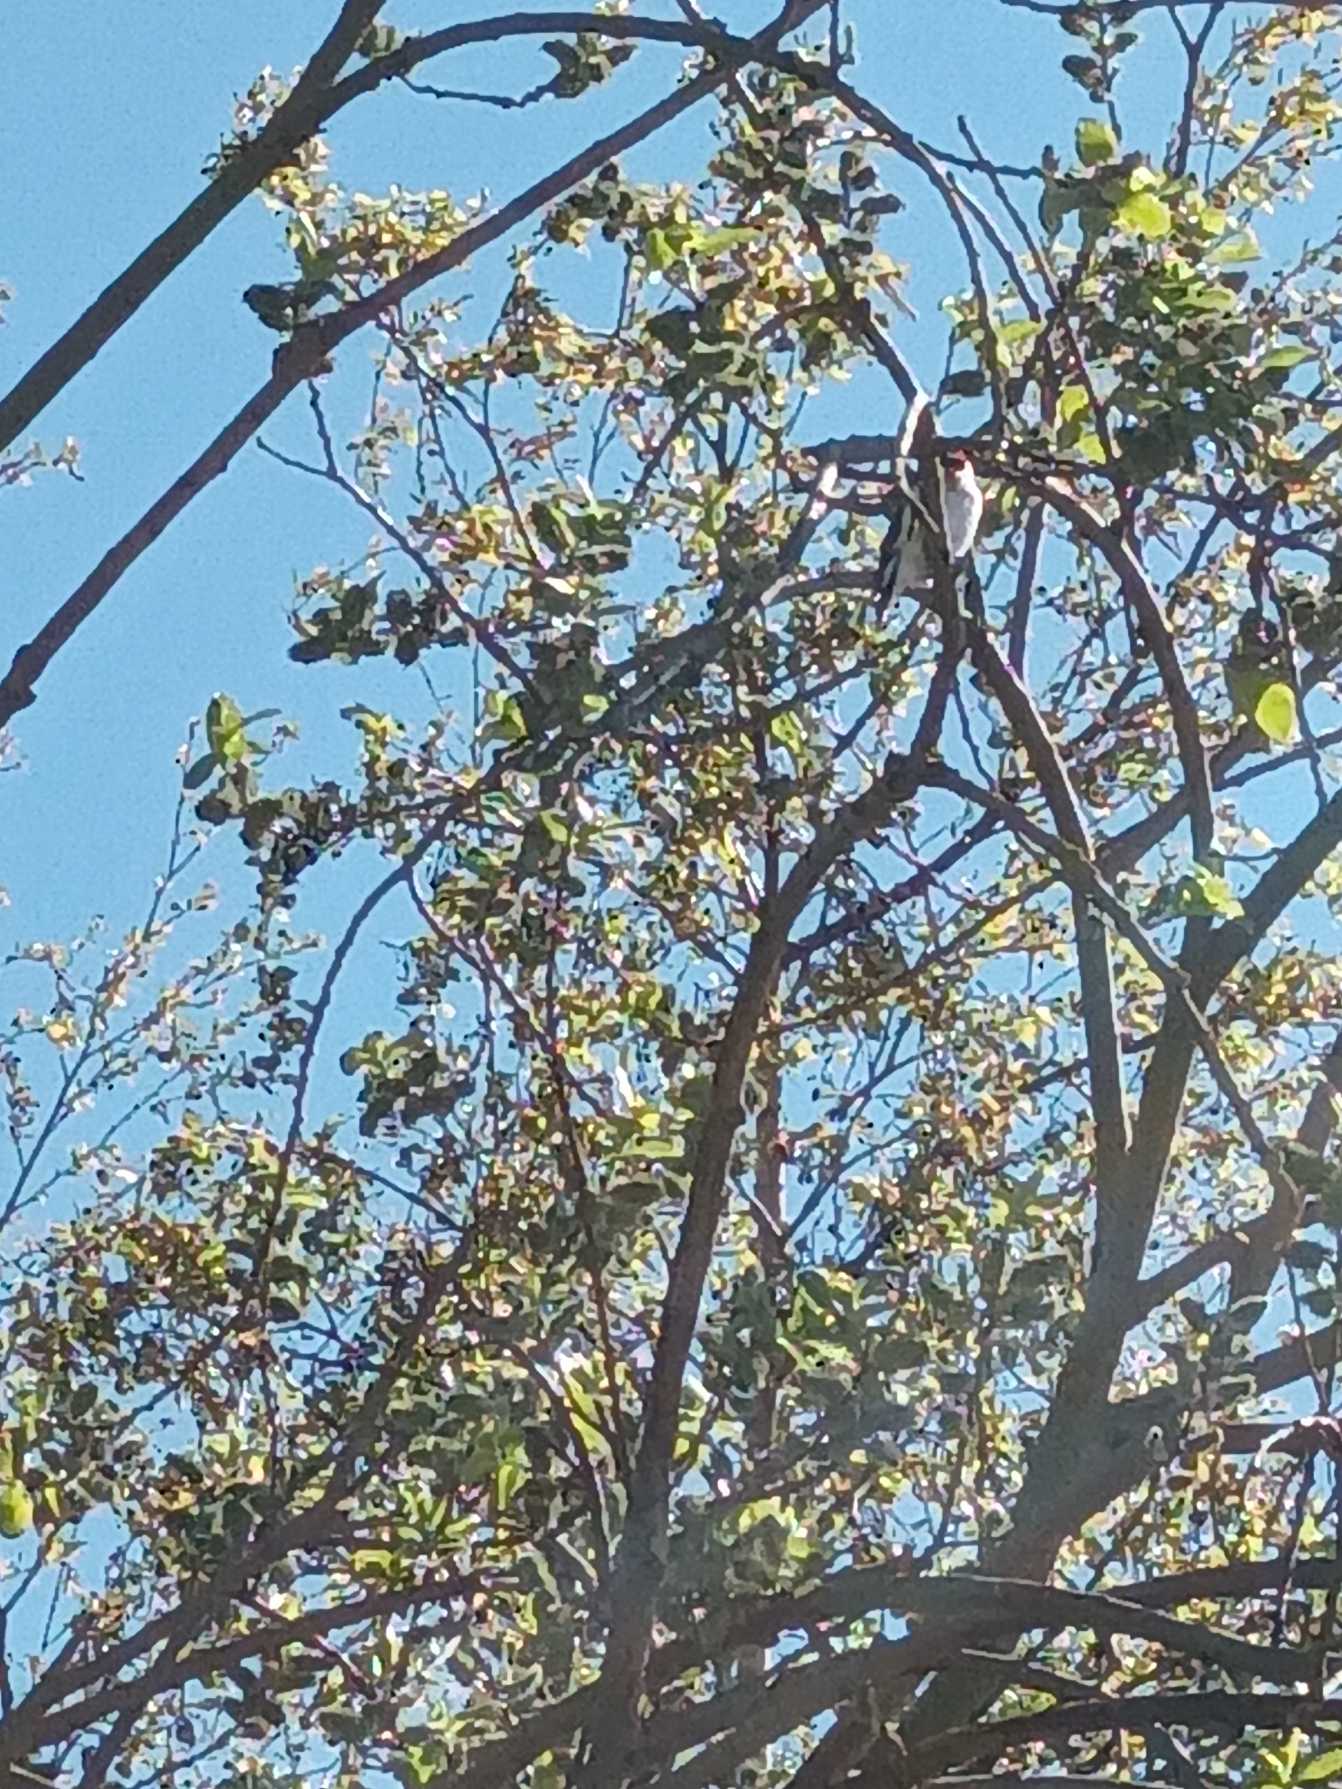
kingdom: Animalia
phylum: Chordata
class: Aves
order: Passeriformes
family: Fringillidae
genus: Carduelis
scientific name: Carduelis carduelis
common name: Stillits
